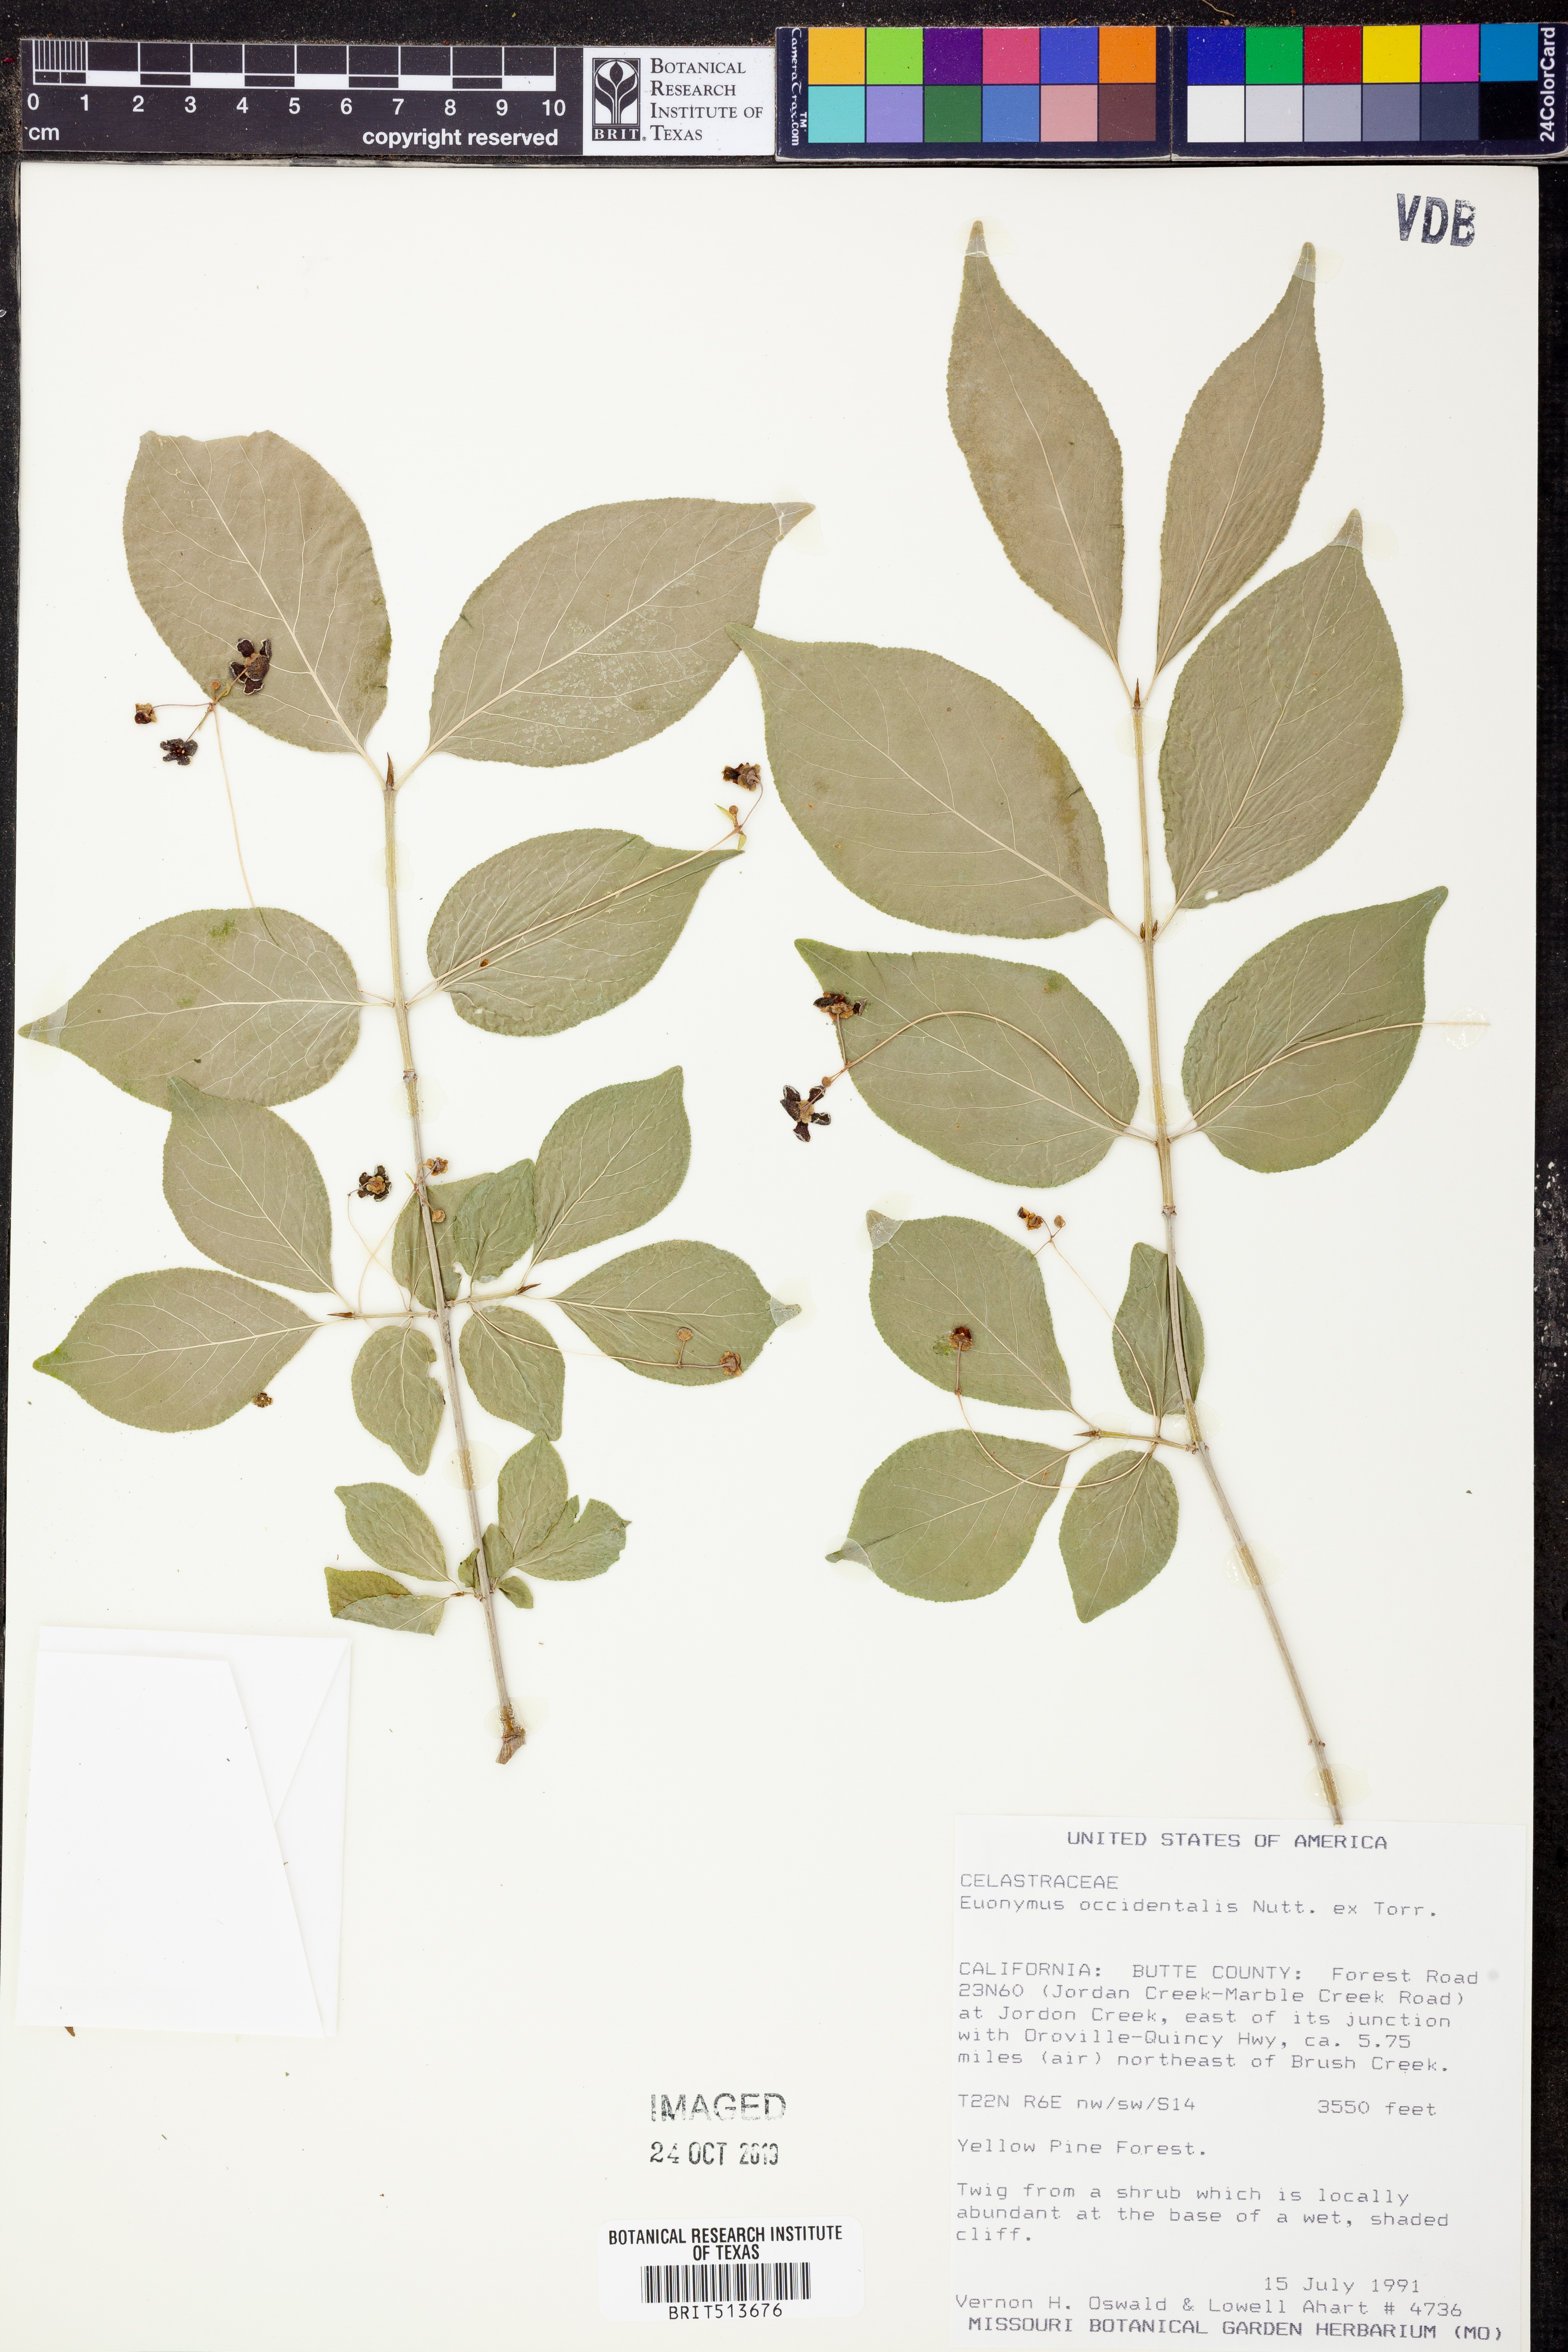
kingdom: Plantae
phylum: Tracheophyta
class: Magnoliopsida
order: Celastrales
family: Celastraceae
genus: Euonymus
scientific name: Euonymus occidentalis
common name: Western burningbush
